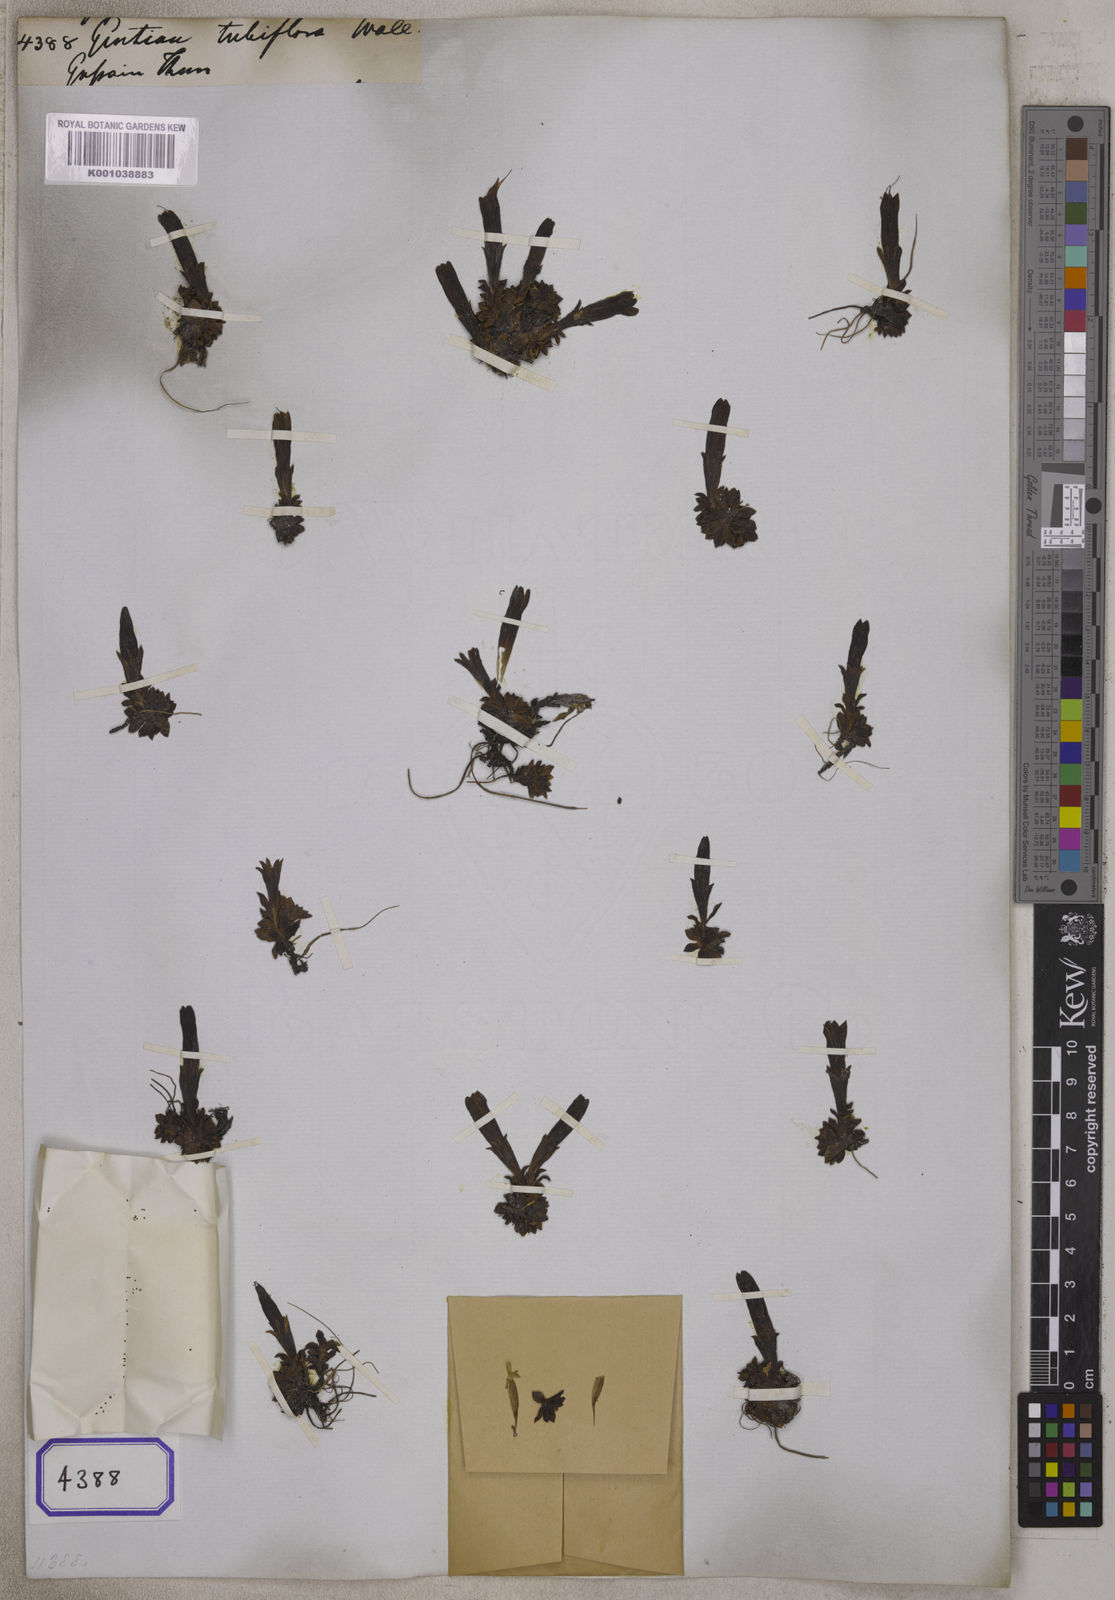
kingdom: Plantae
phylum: Tracheophyta
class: Magnoliopsida
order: Gentianales
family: Gentianaceae
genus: Gentiana
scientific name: Gentiana
